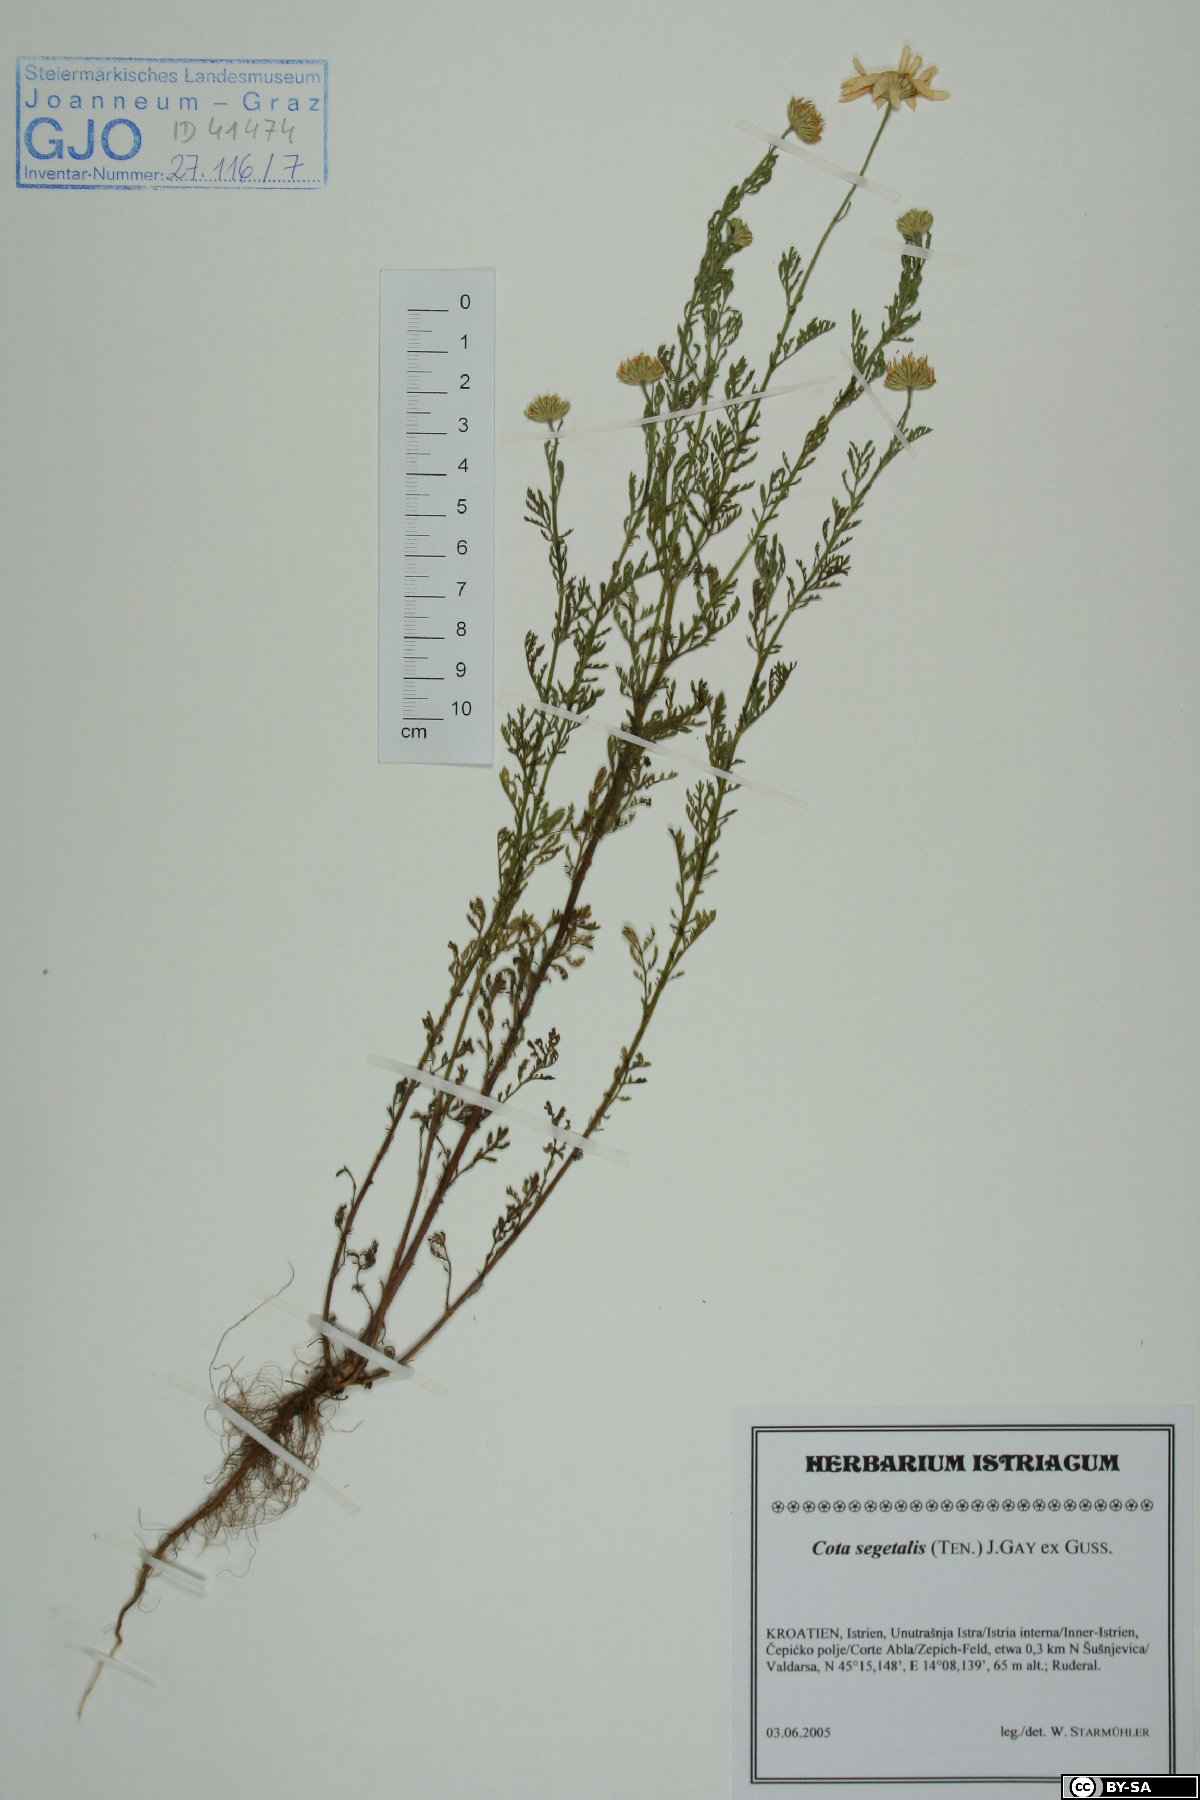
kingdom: Plantae
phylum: Tracheophyta
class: Magnoliopsida
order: Asterales
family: Asteraceae
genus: Cota
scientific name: Cota segetalis
